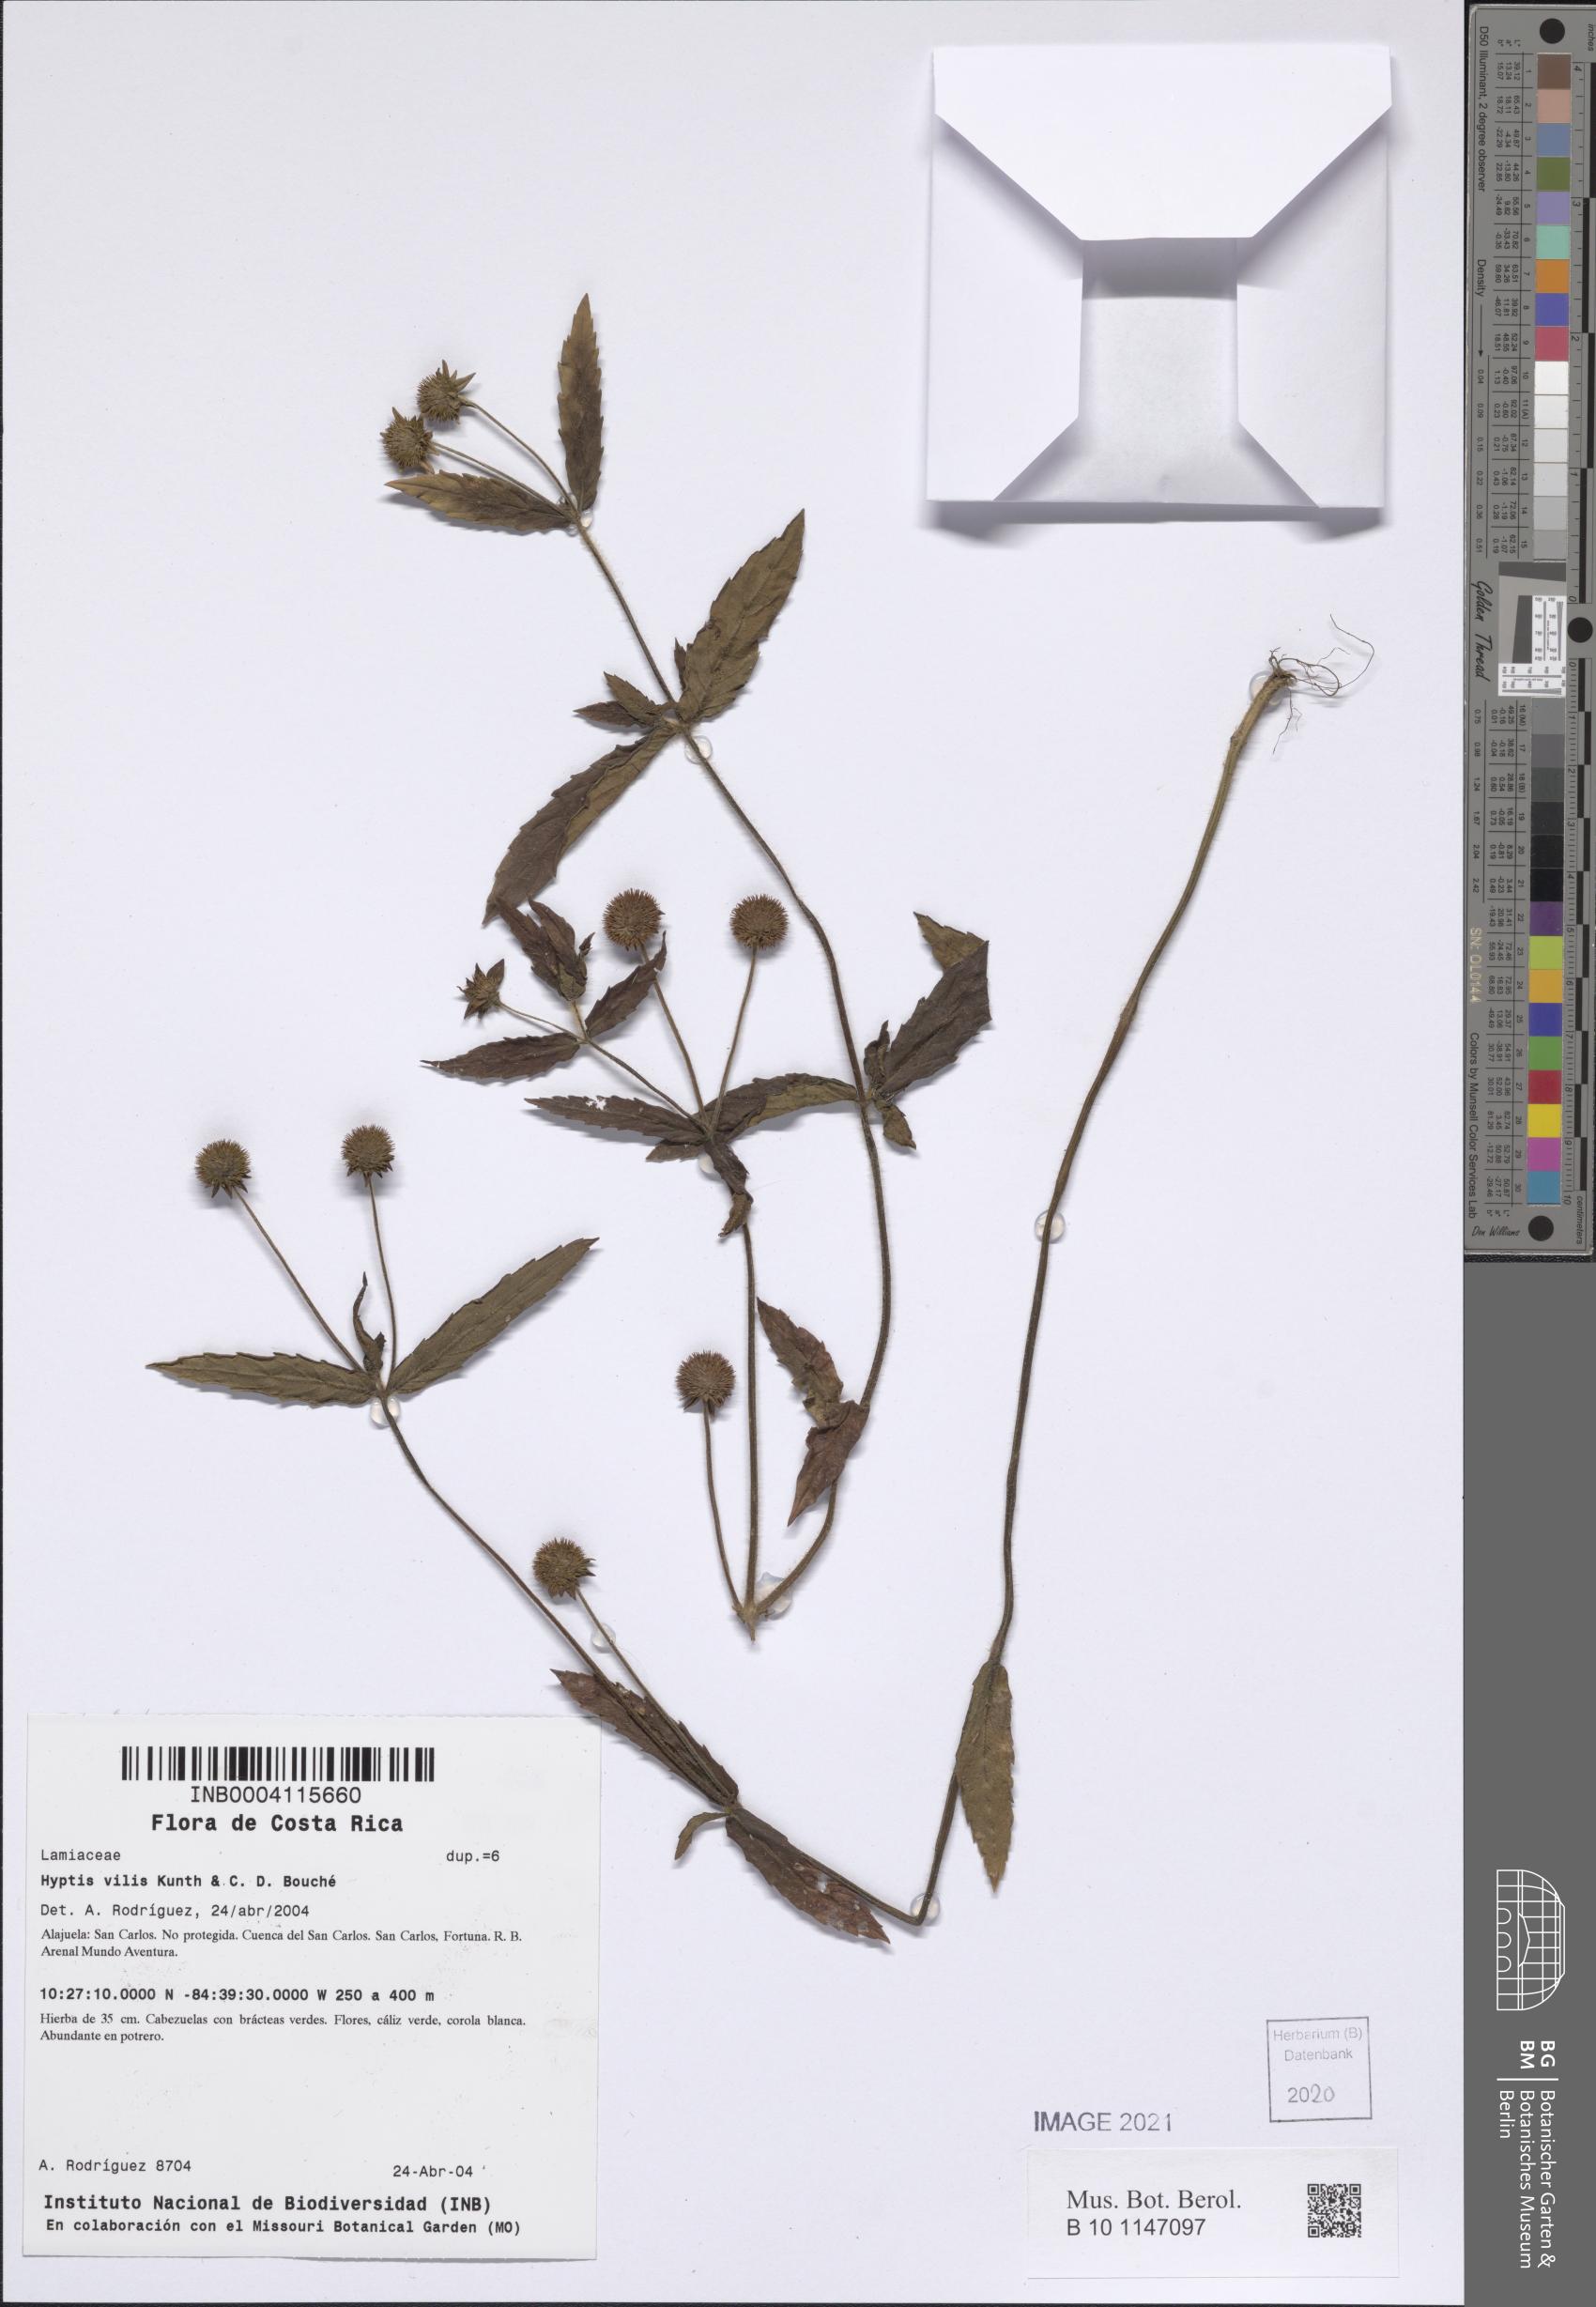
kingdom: Plantae
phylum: Tracheophyta
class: Magnoliopsida
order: Lamiales
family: Lamiaceae
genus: Hyptis
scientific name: Hyptis vilis
